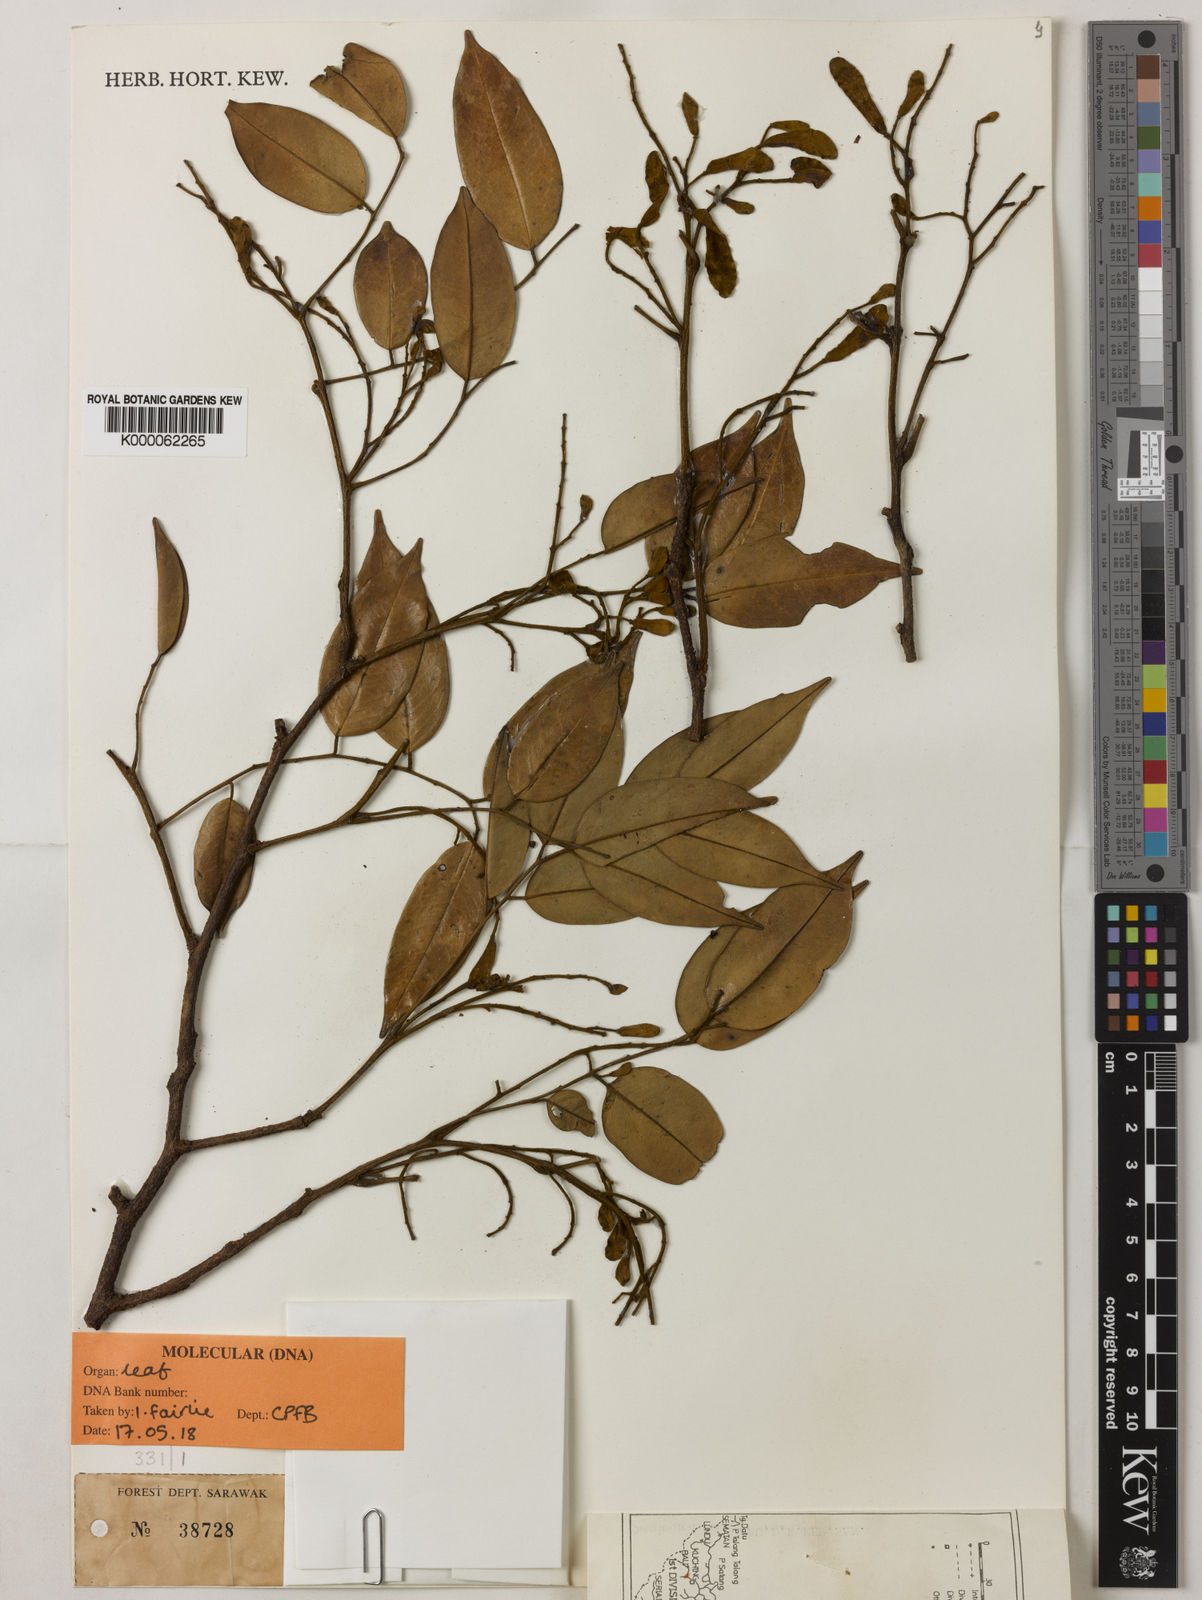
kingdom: Plantae
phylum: Tracheophyta
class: Magnoliopsida
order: Fabales
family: Fabaceae
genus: Koompassia
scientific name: Koompassia
